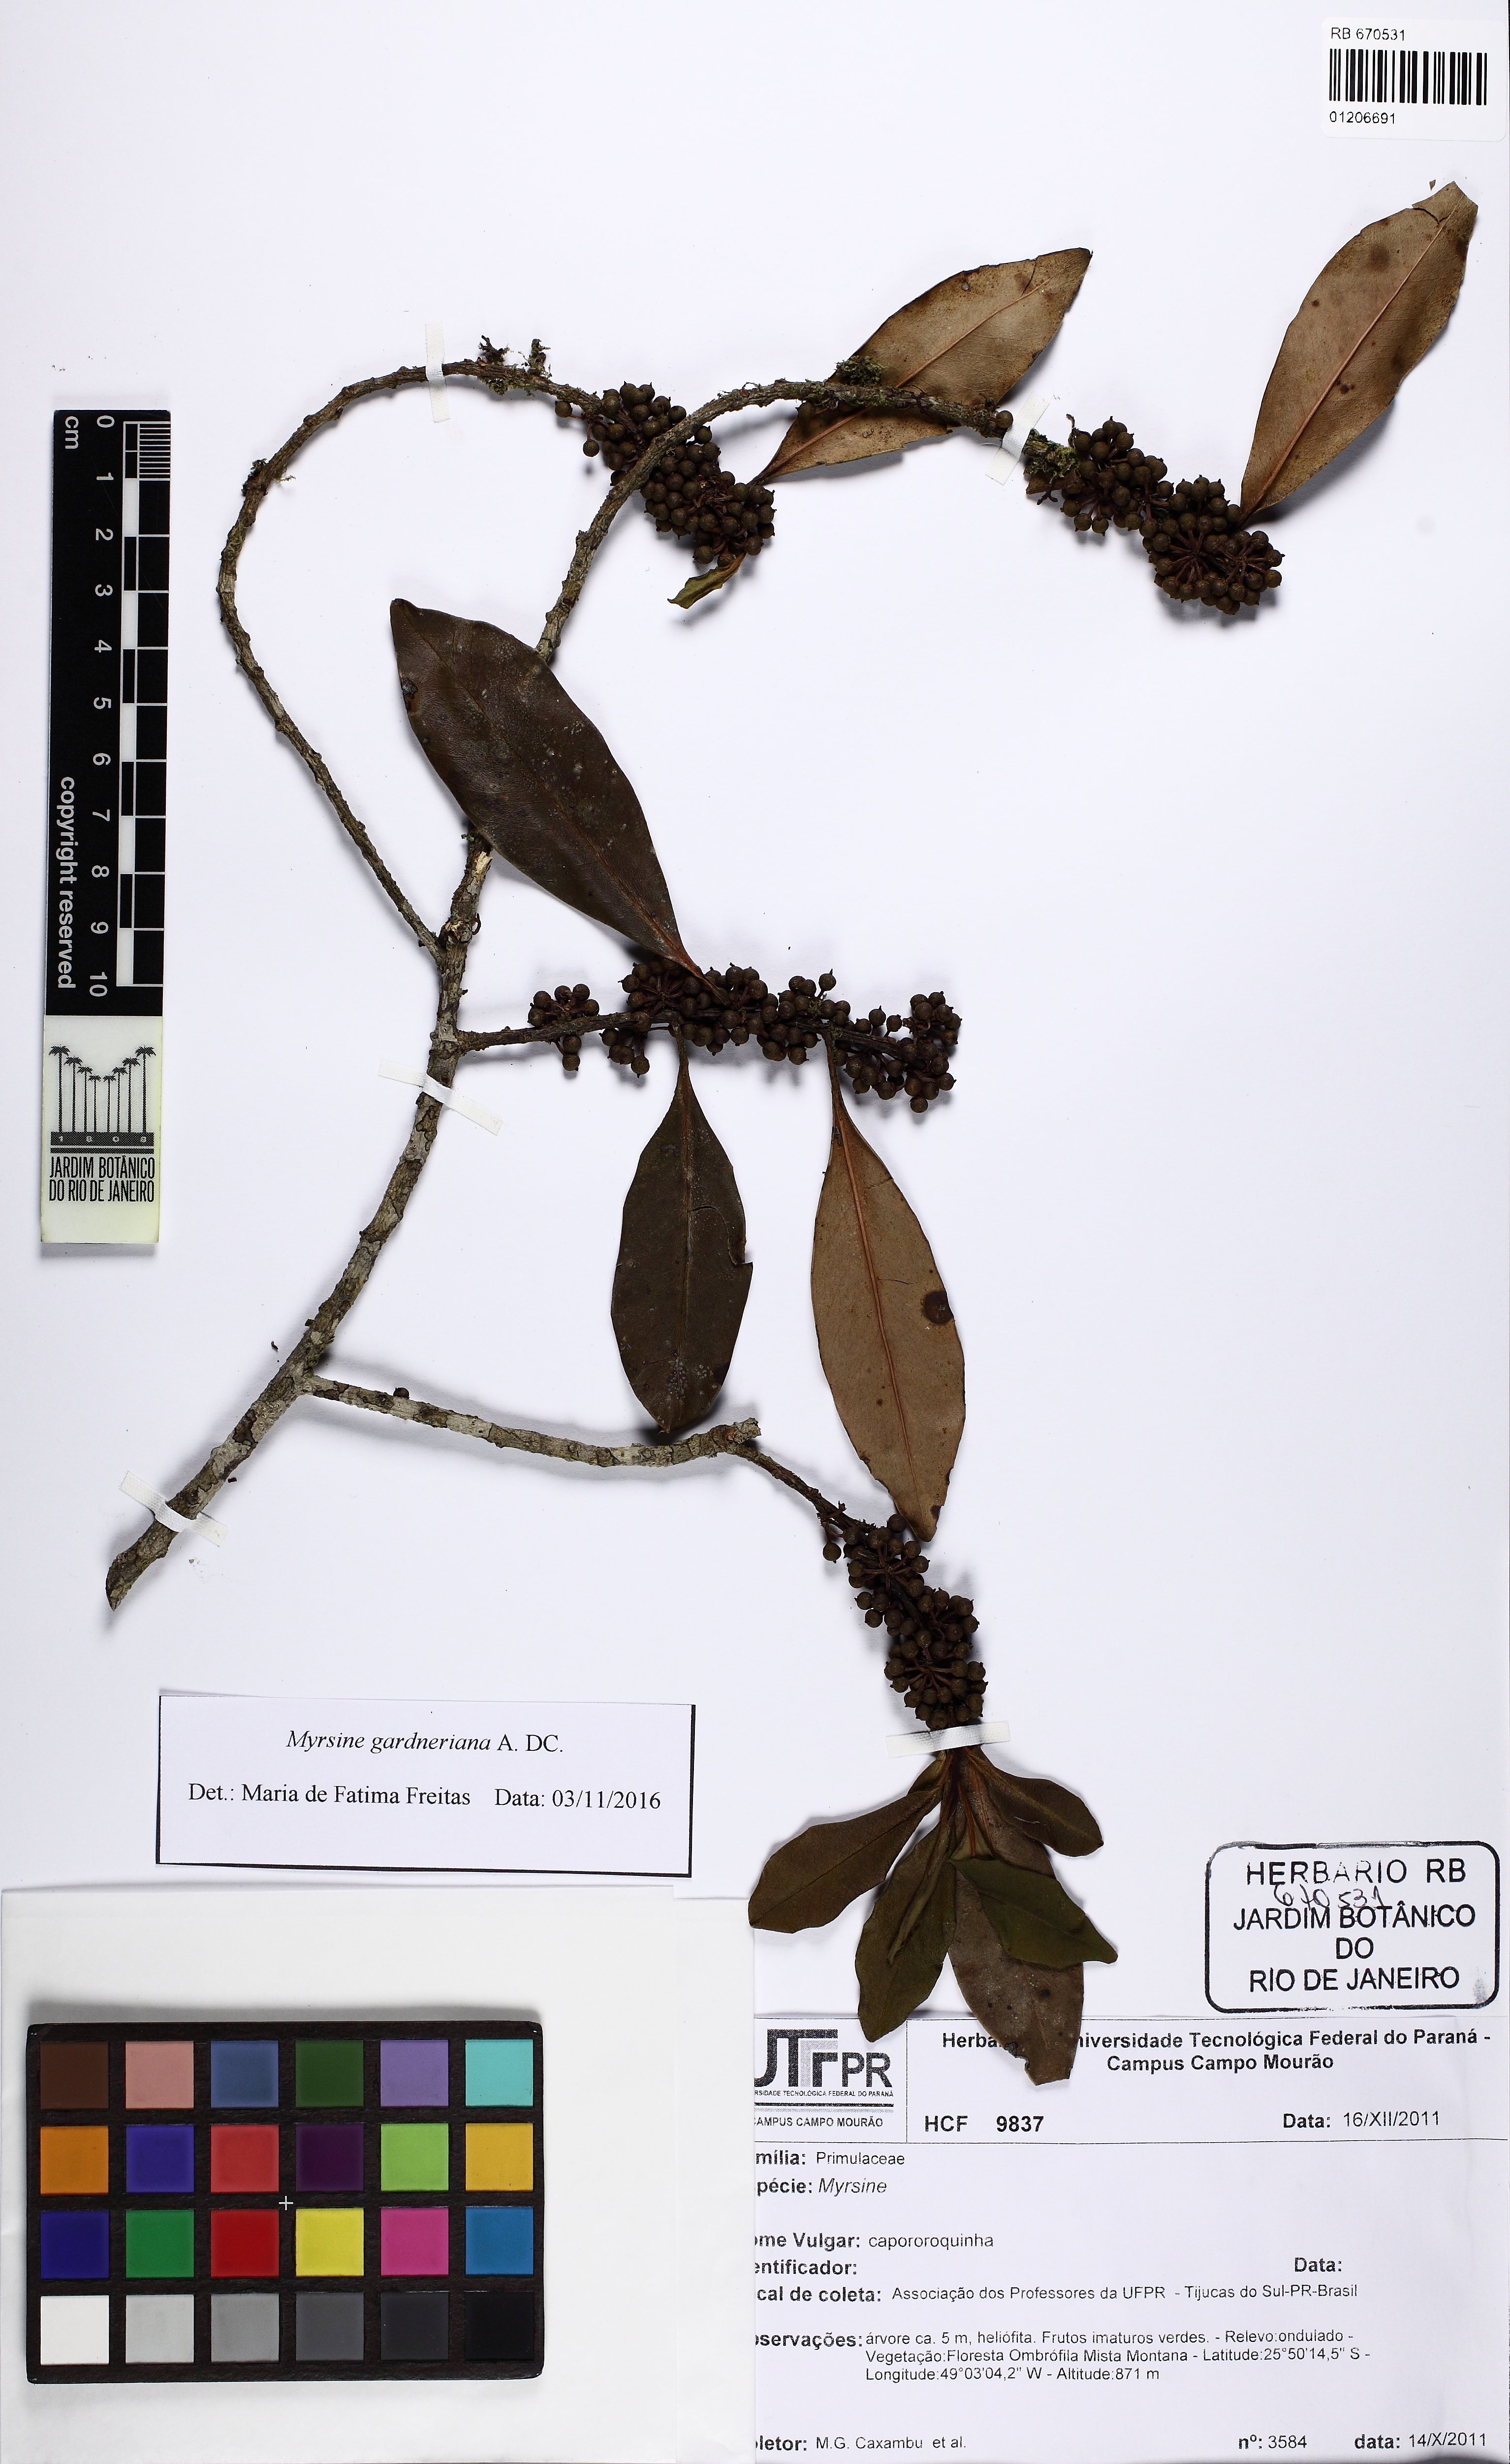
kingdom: Plantae
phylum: Tracheophyta
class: Magnoliopsida
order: Ericales
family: Primulaceae
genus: Myrsine
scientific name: Myrsine gardneriana
